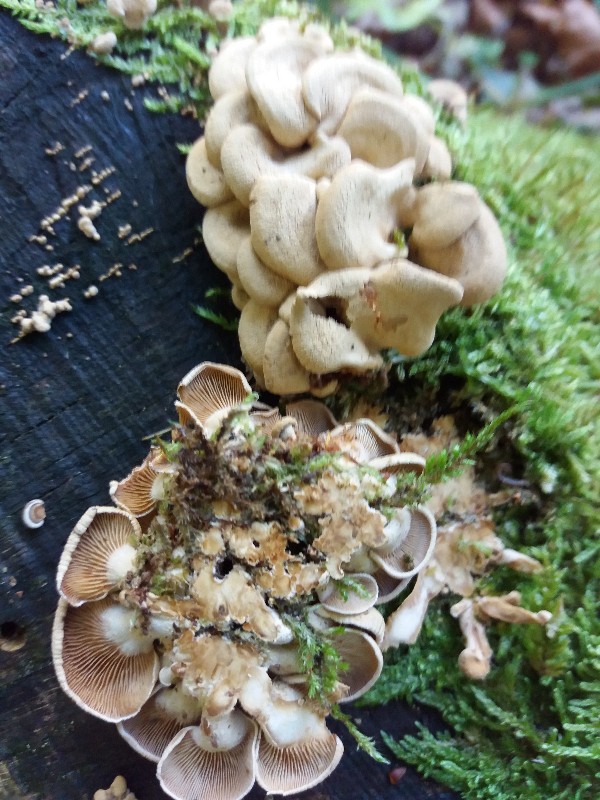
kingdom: Fungi
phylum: Basidiomycota
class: Agaricomycetes
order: Agaricales
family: Mycenaceae
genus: Panellus
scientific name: Panellus stipticus
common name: kliddet epaulethat
